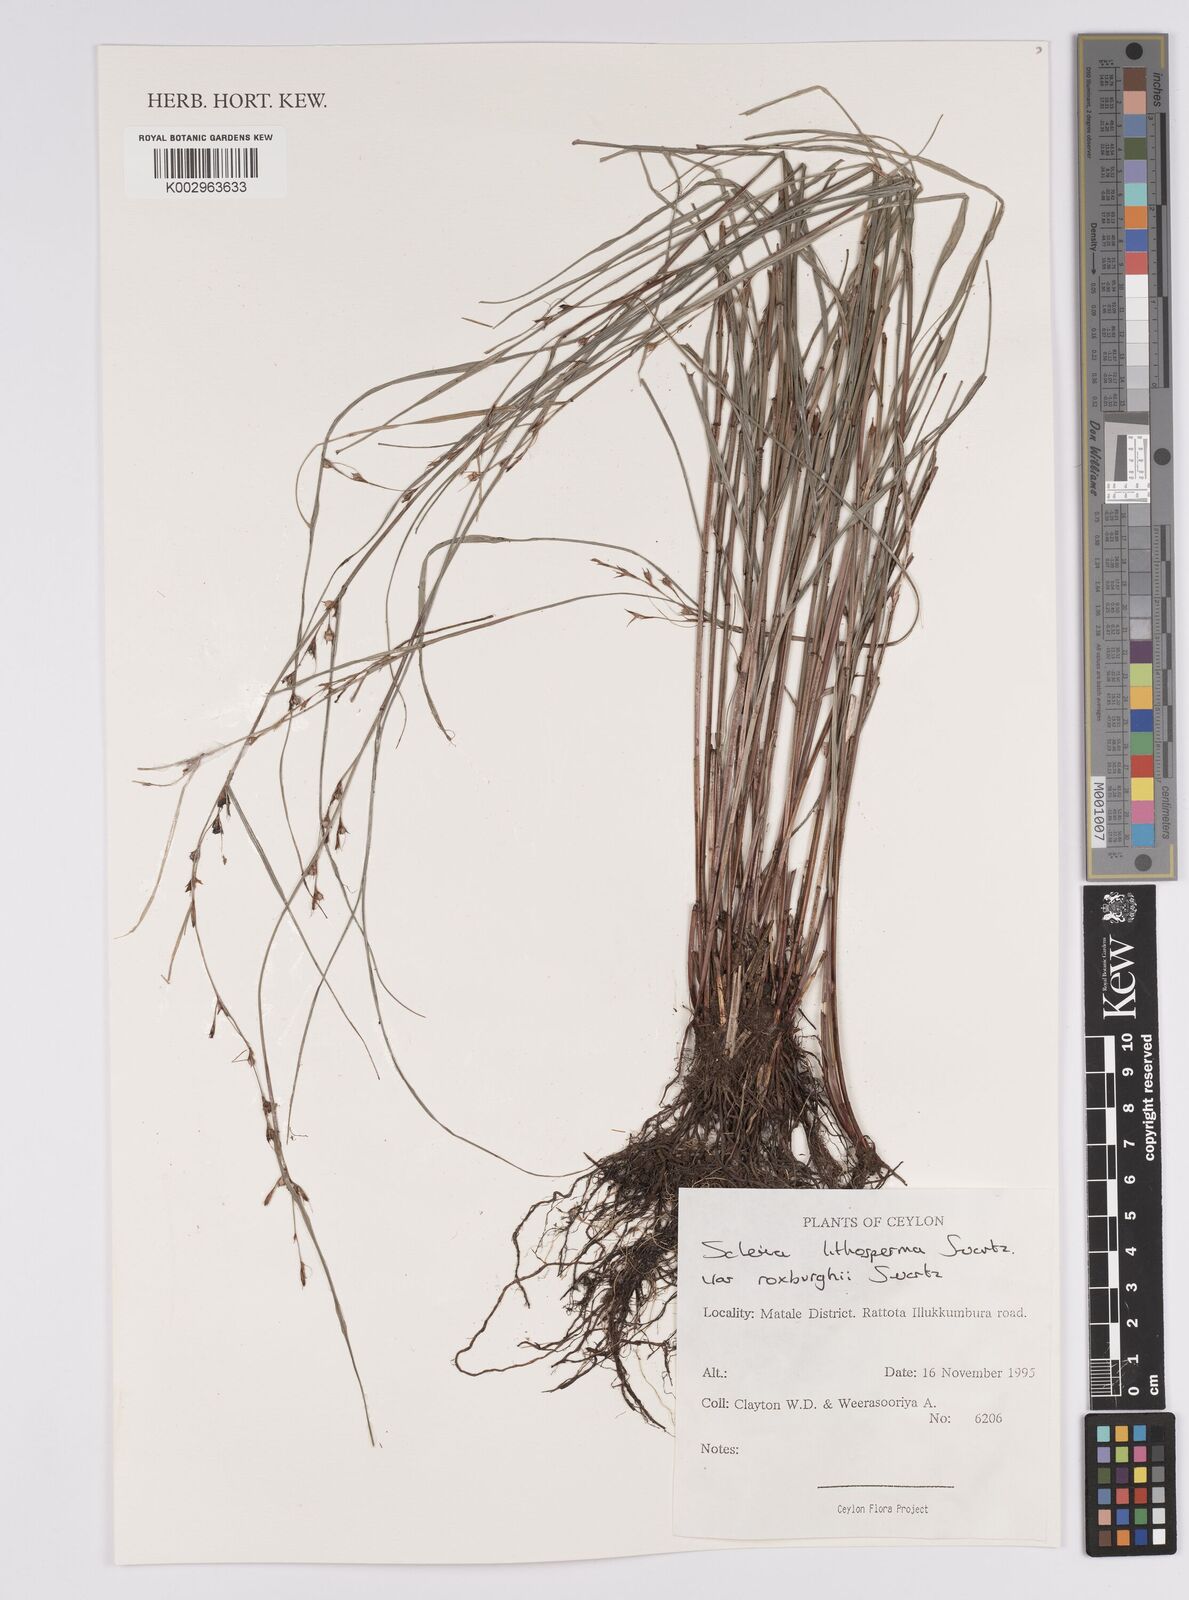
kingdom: Plantae
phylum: Tracheophyta
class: Liliopsida
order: Poales
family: Cyperaceae
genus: Scleria
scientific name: Scleria lithosperma
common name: Florida keys nut-rush
